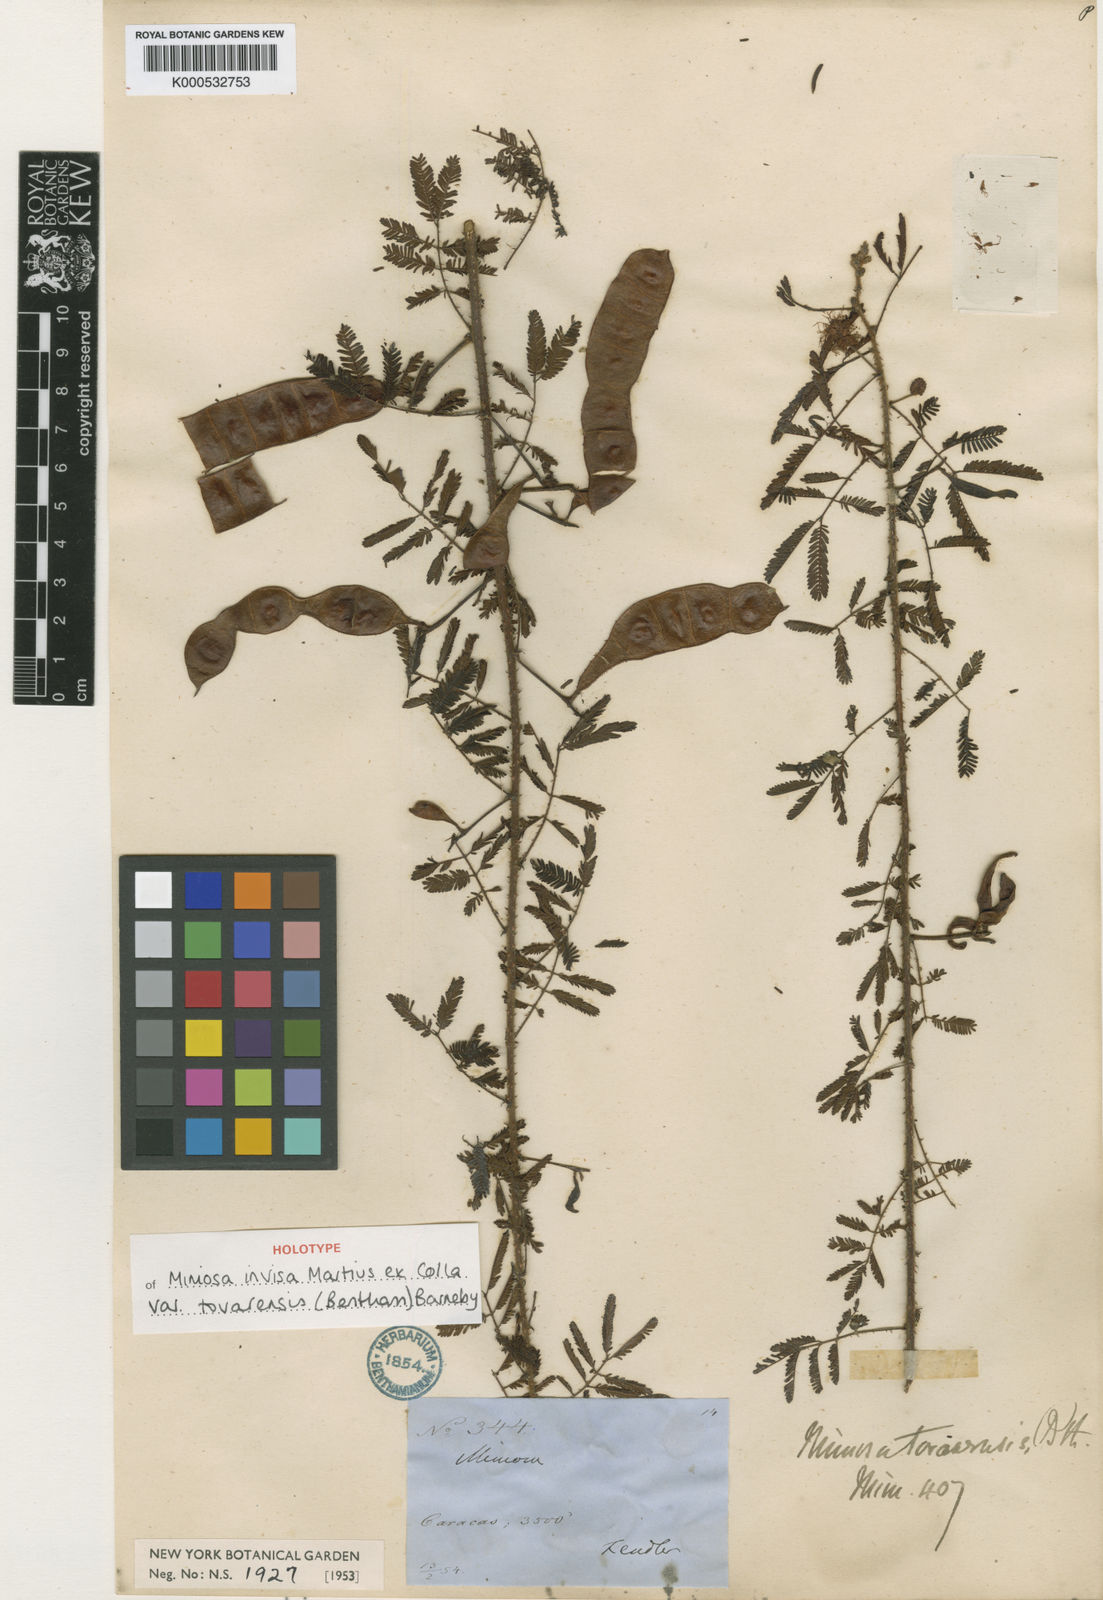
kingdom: Plantae
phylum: Tracheophyta
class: Magnoliopsida
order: Fabales
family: Fabaceae
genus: Mimosa
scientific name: Mimosa invisa
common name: Creeping sensitive-plant
